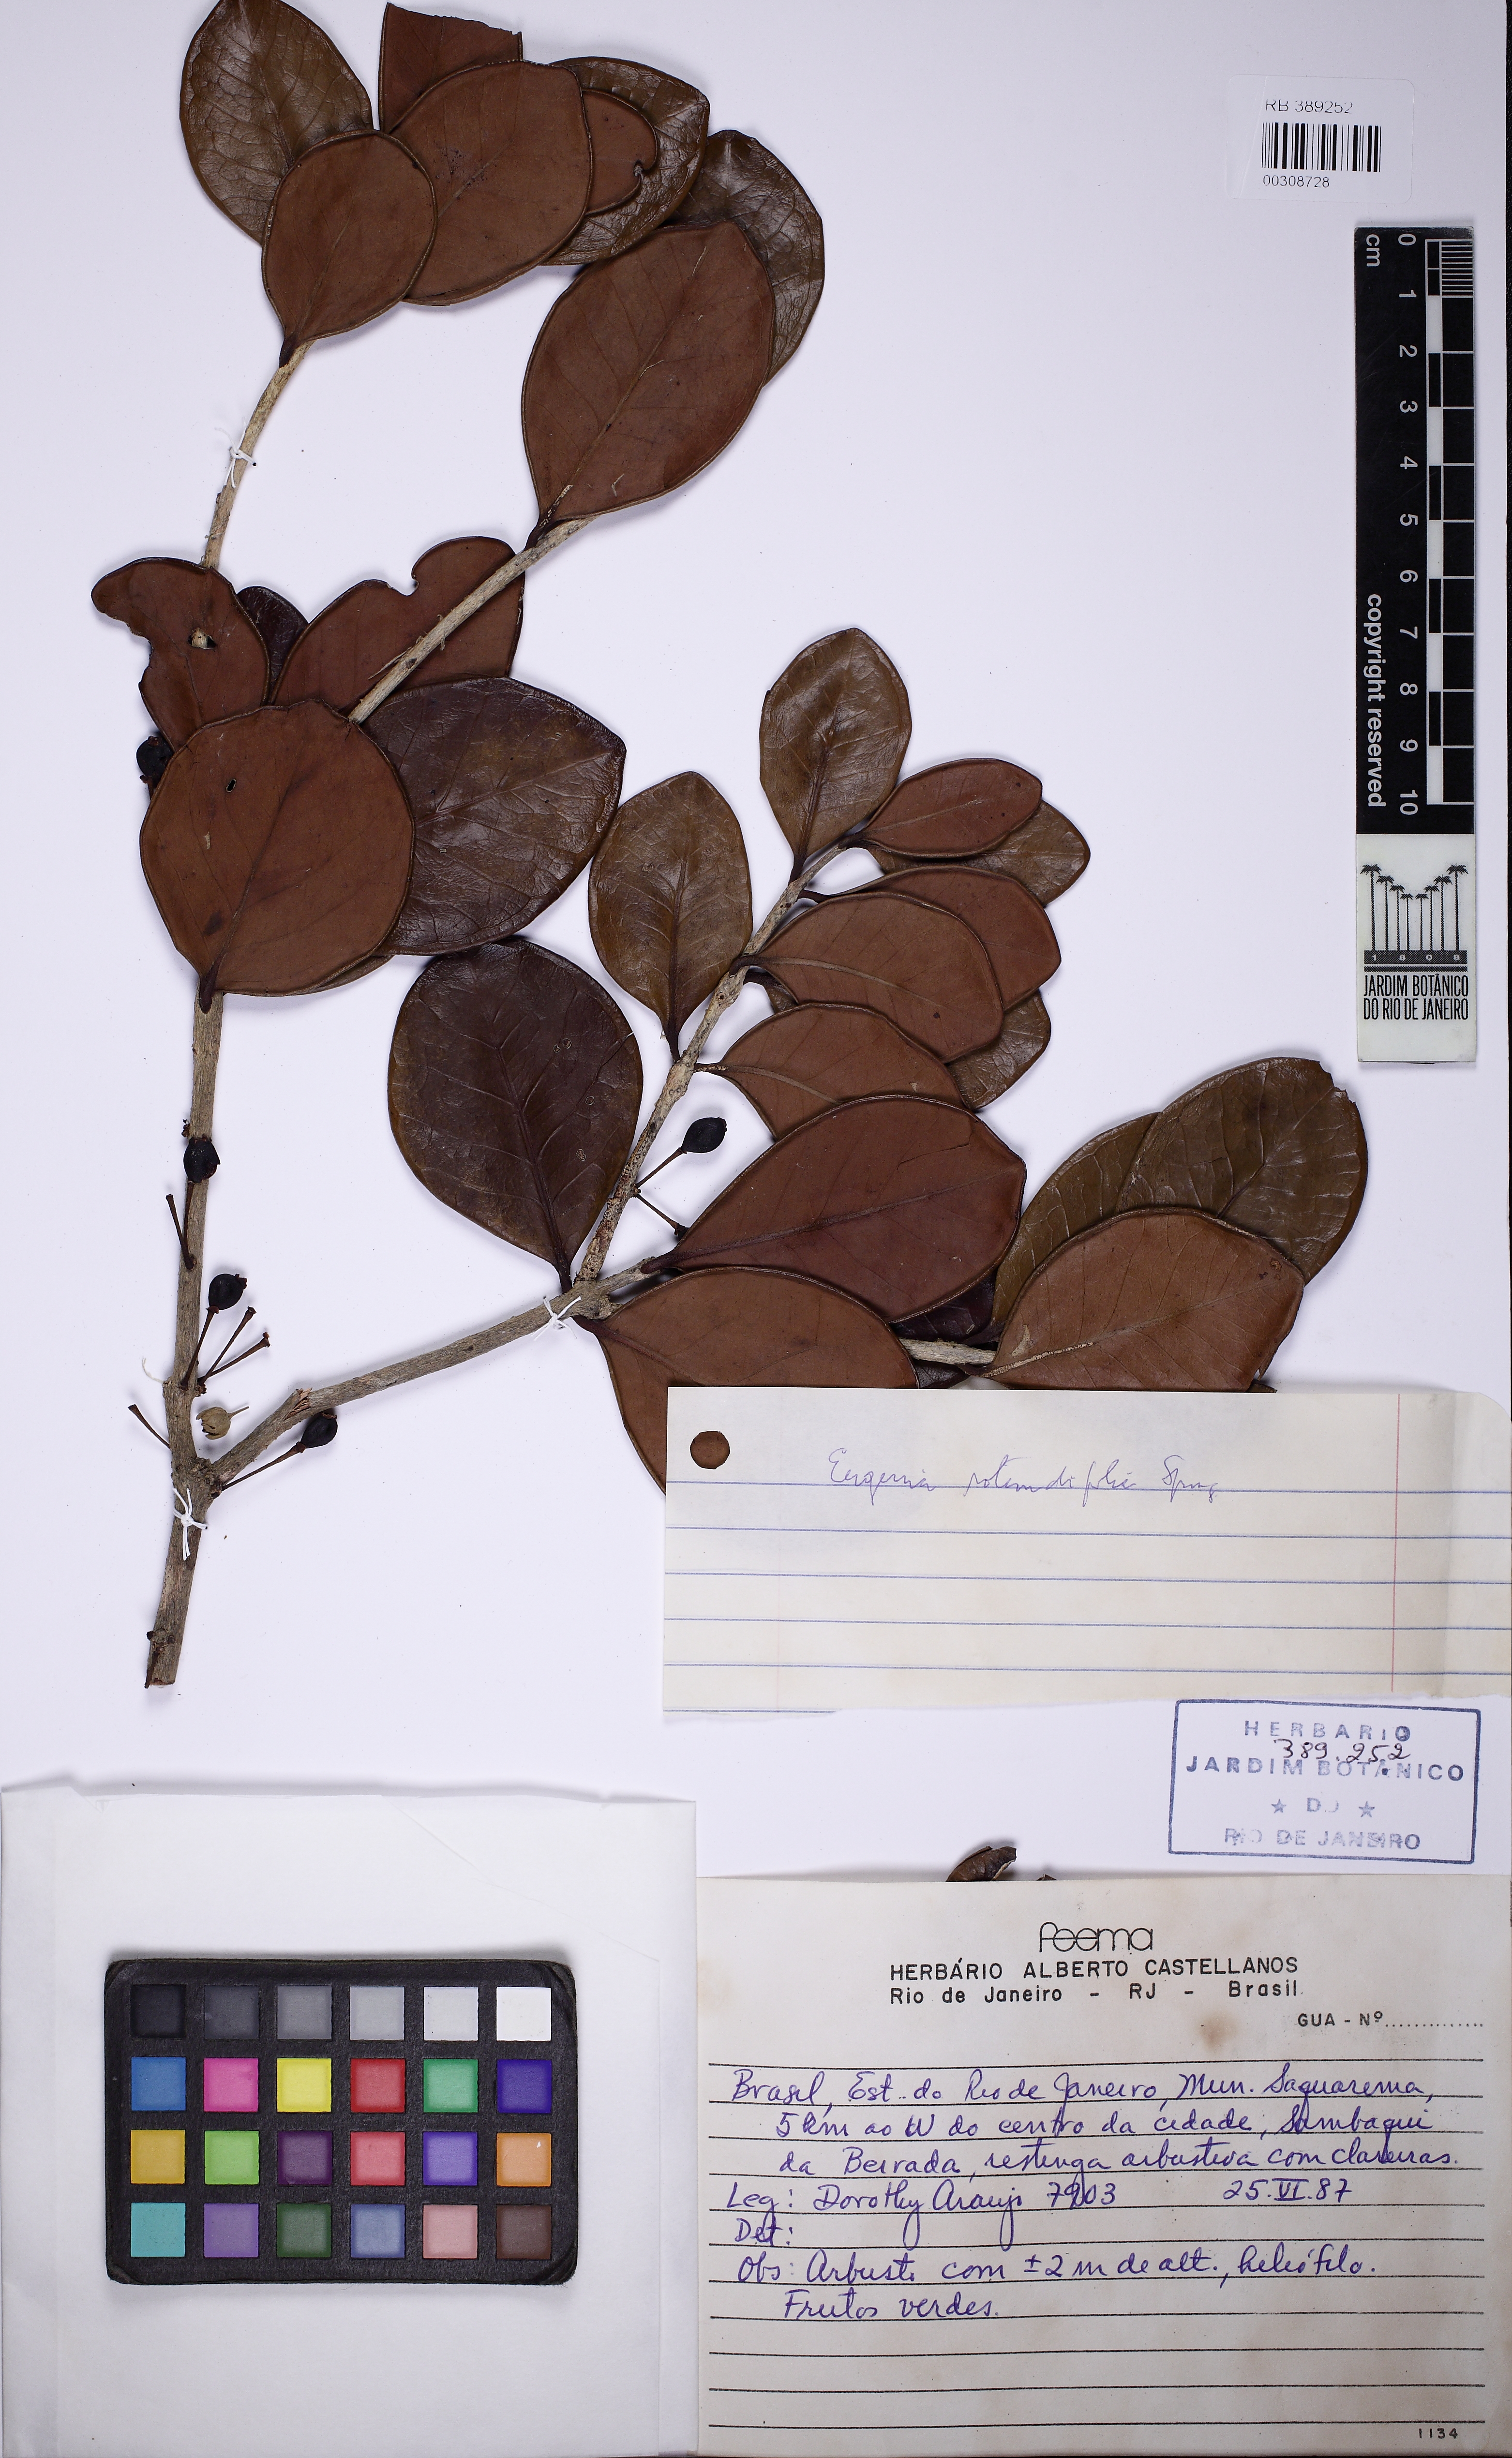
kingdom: Plantae
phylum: Tracheophyta
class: Magnoliopsida
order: Myrtales
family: Myrtaceae
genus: Syzygium
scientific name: Syzygium rotundifolium
